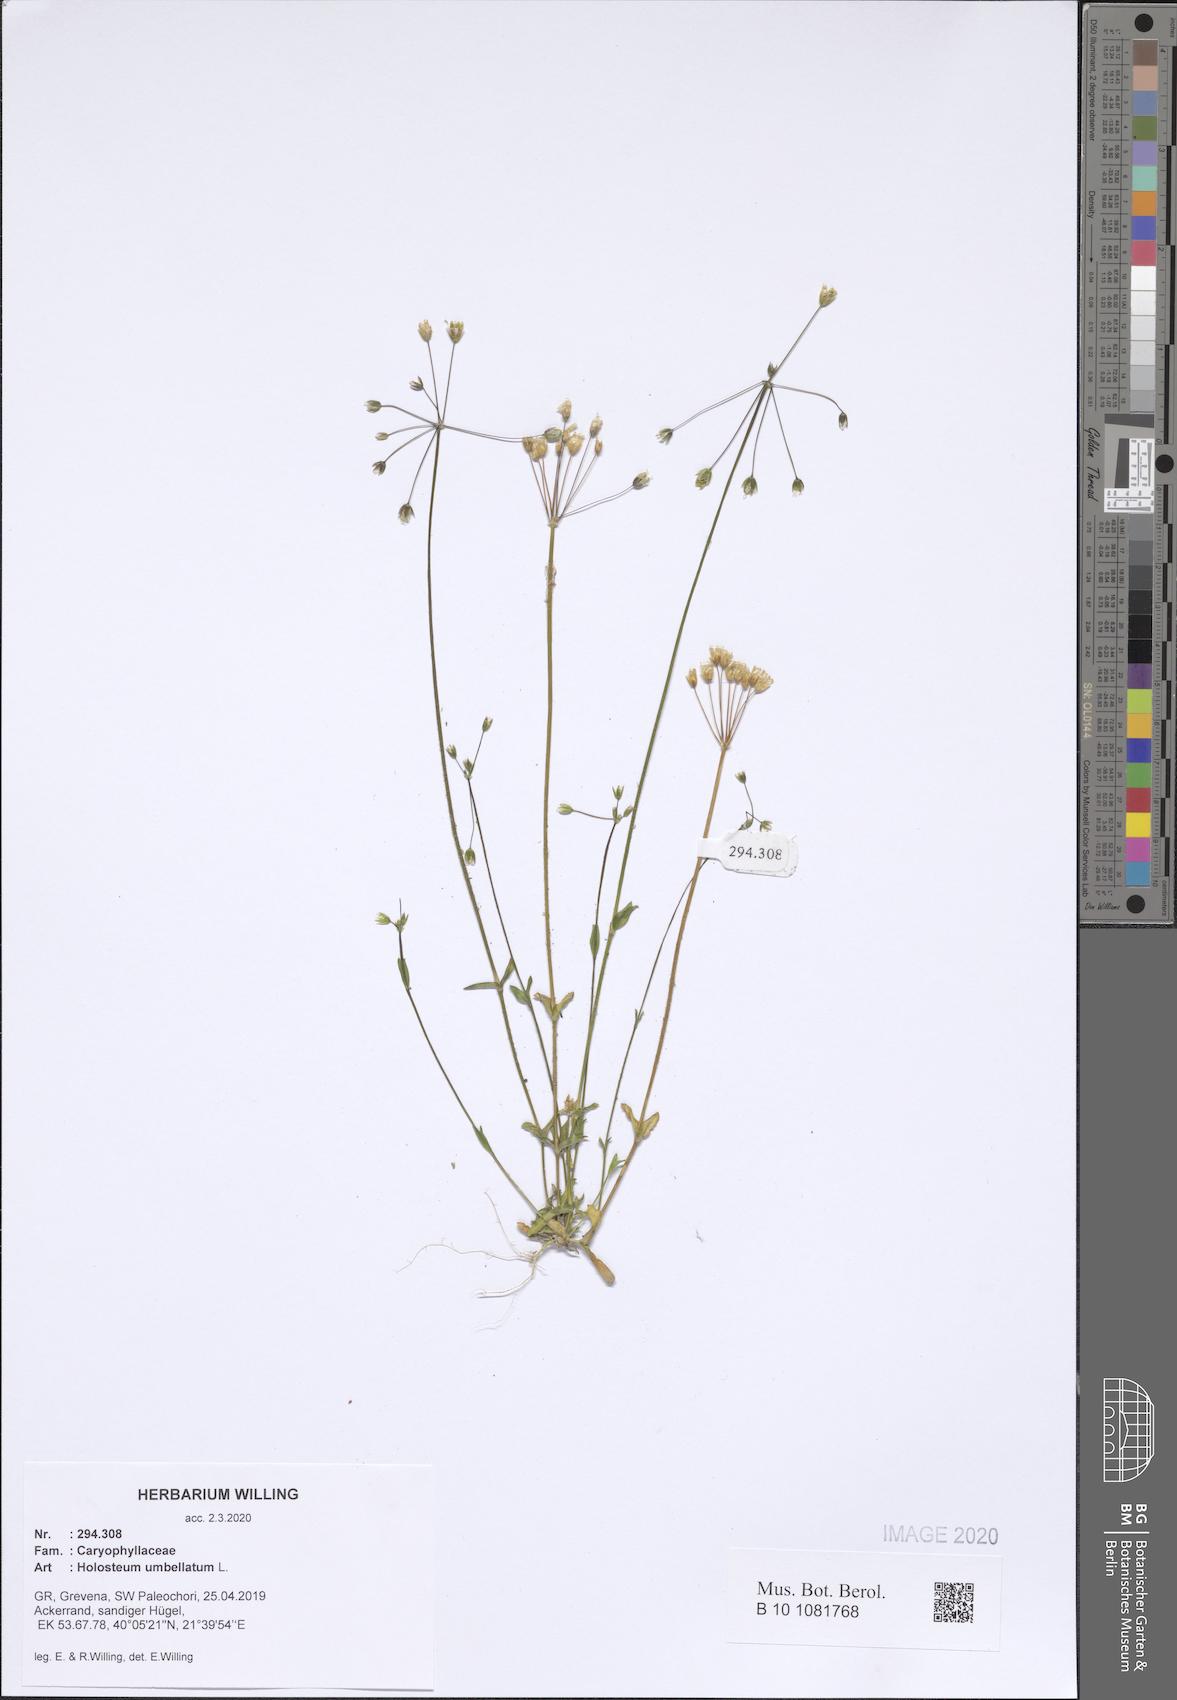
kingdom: Plantae
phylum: Tracheophyta
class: Magnoliopsida
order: Caryophyllales
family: Caryophyllaceae
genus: Holosteum
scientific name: Holosteum umbellatum
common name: Jagged chickweed
